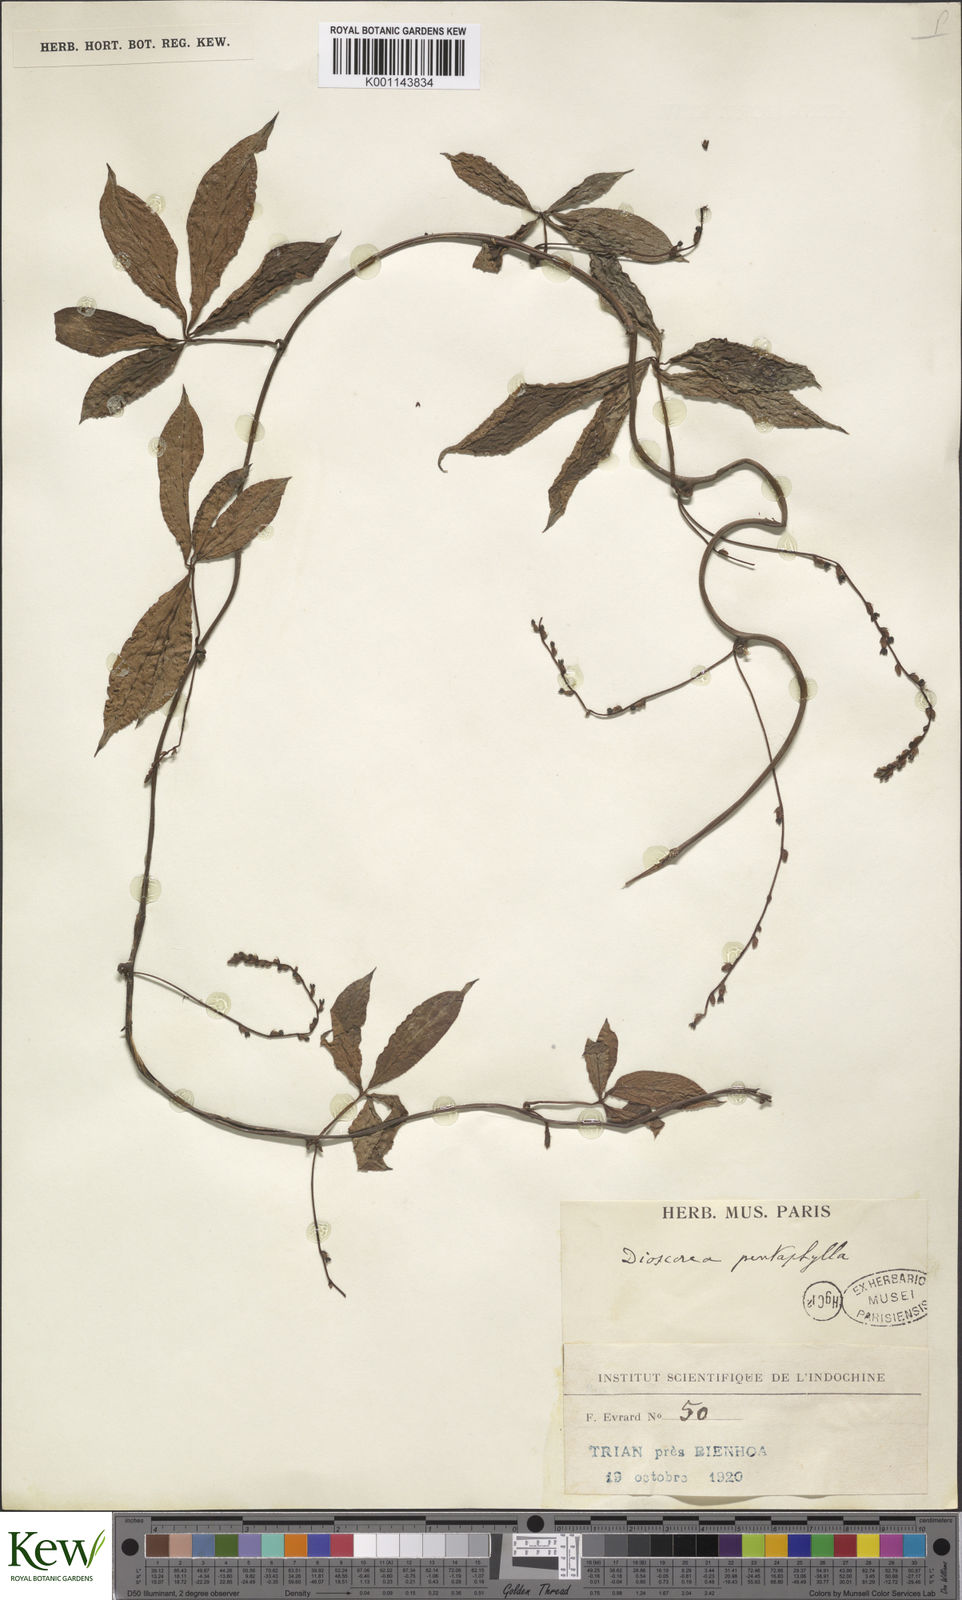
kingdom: Plantae
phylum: Tracheophyta
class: Liliopsida
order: Dioscoreales
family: Dioscoreaceae
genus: Dioscorea
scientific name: Dioscorea pentaphylla
